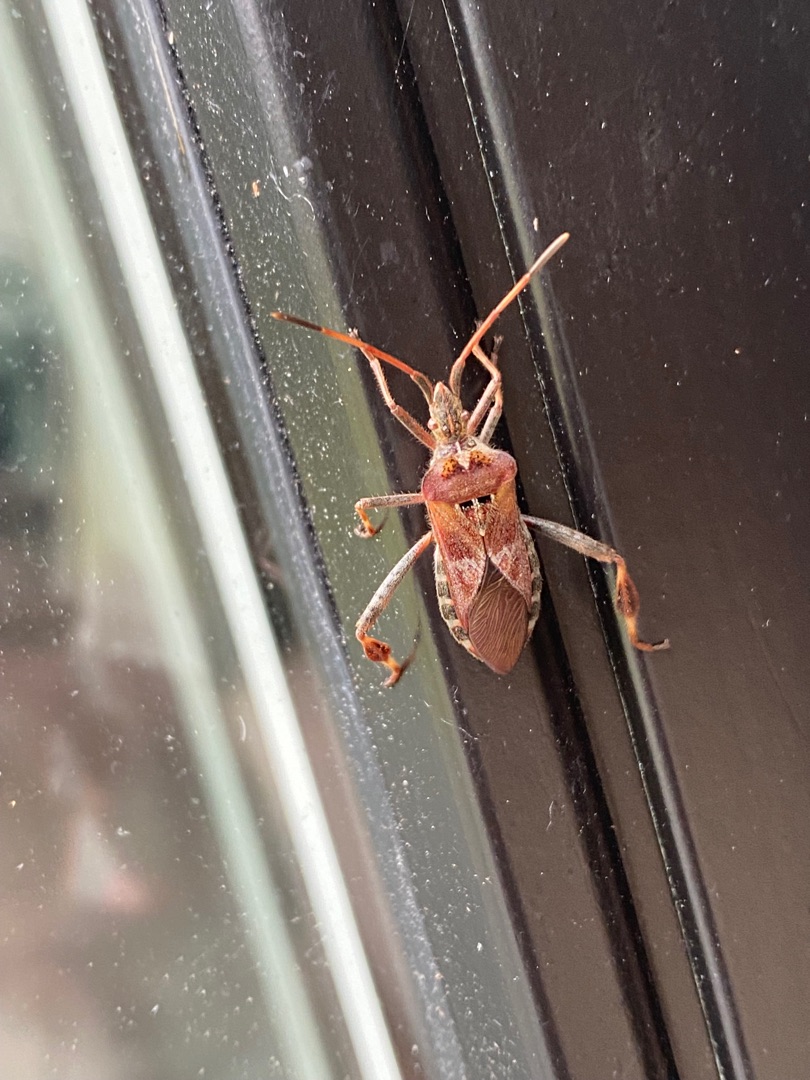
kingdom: Animalia
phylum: Arthropoda
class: Insecta
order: Hemiptera
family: Coreidae
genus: Leptoglossus
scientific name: Leptoglossus occidentalis
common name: Amerikansk fyrretæge
